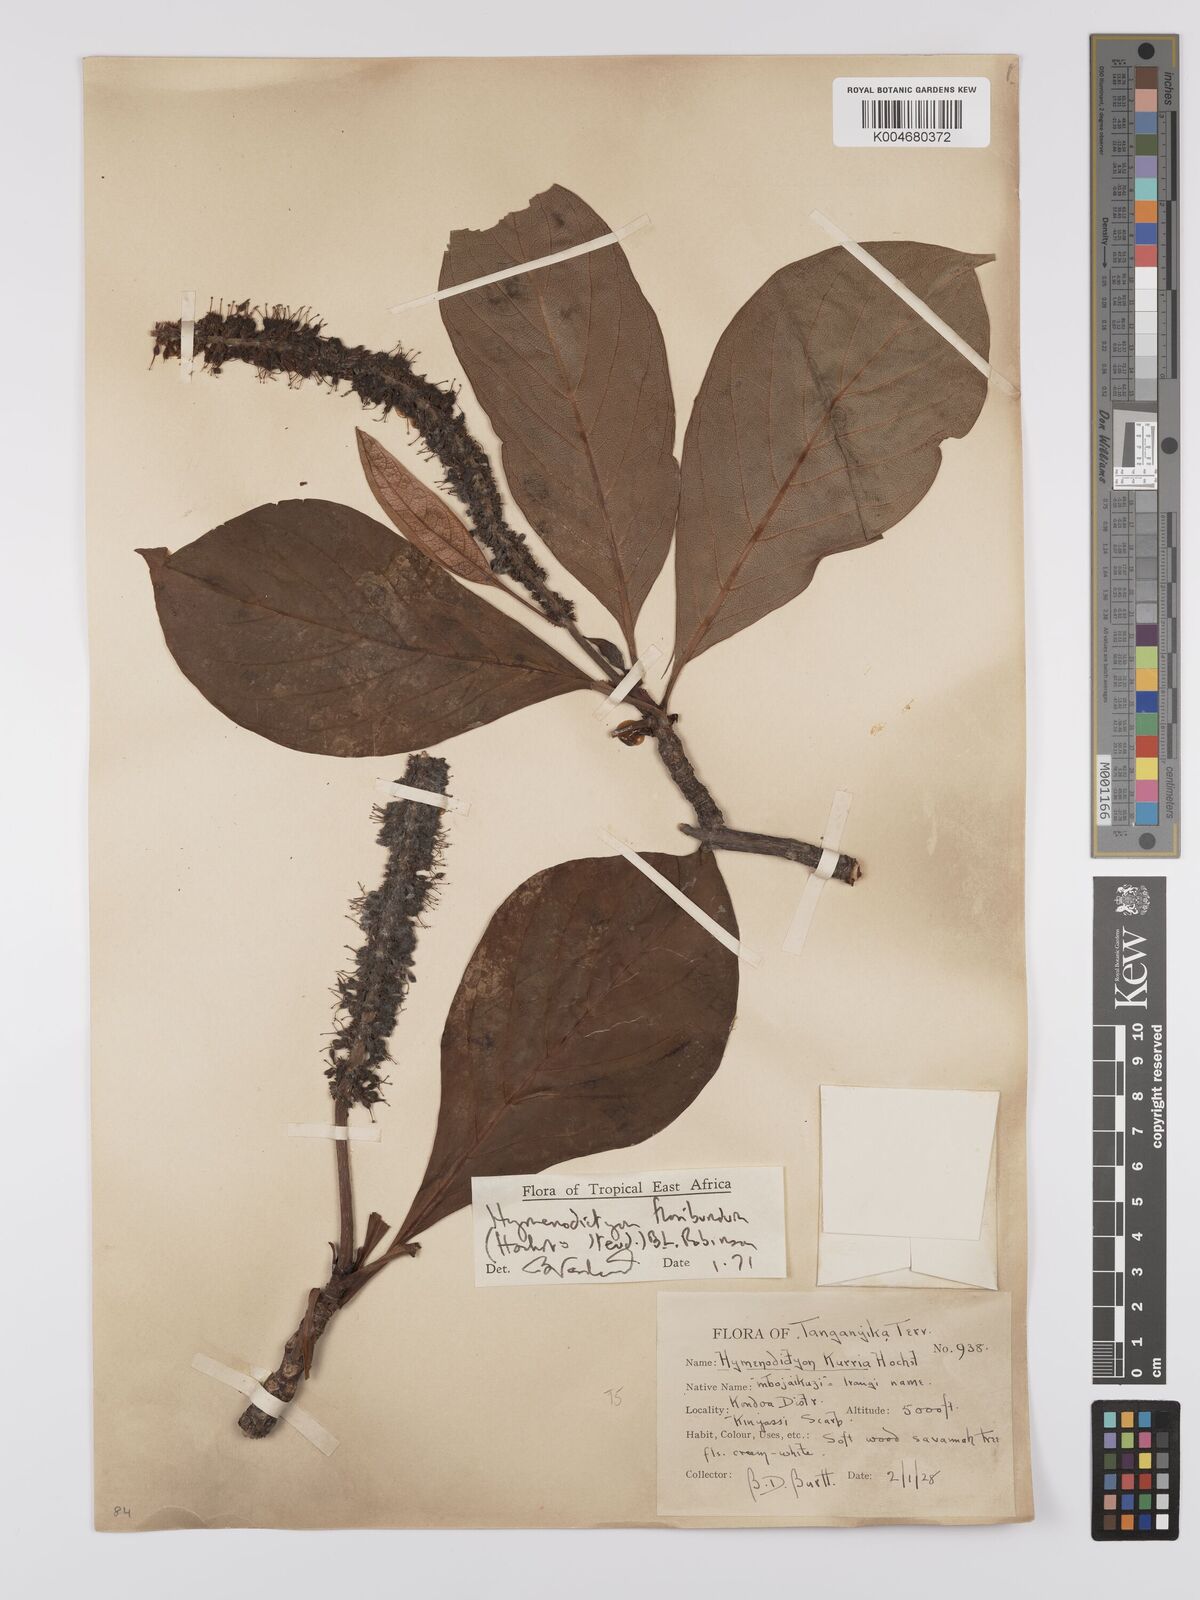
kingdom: Plantae
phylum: Tracheophyta
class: Magnoliopsida
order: Gentianales
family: Rubiaceae
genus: Hymenodictyon
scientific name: Hymenodictyon floribundum
